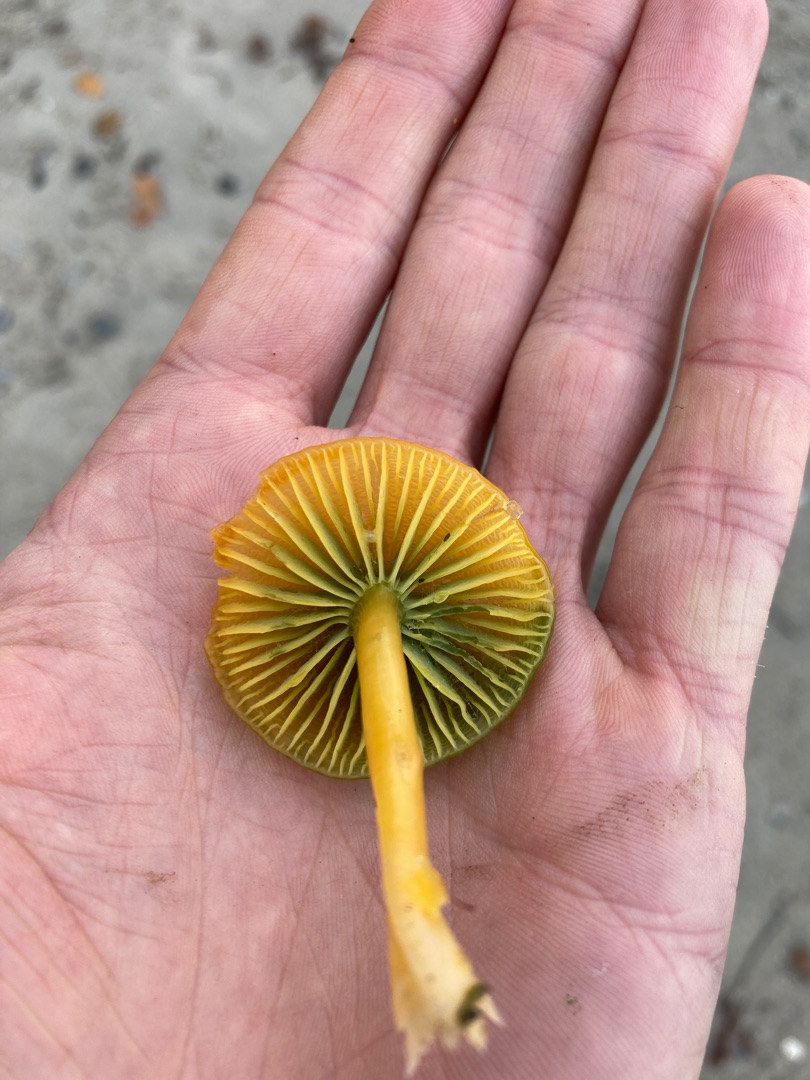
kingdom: Fungi
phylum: Basidiomycota
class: Agaricomycetes
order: Agaricales
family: Hygrophoraceae
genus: Gliophorus
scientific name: Gliophorus psittacinus
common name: Papegøje-vokshat
